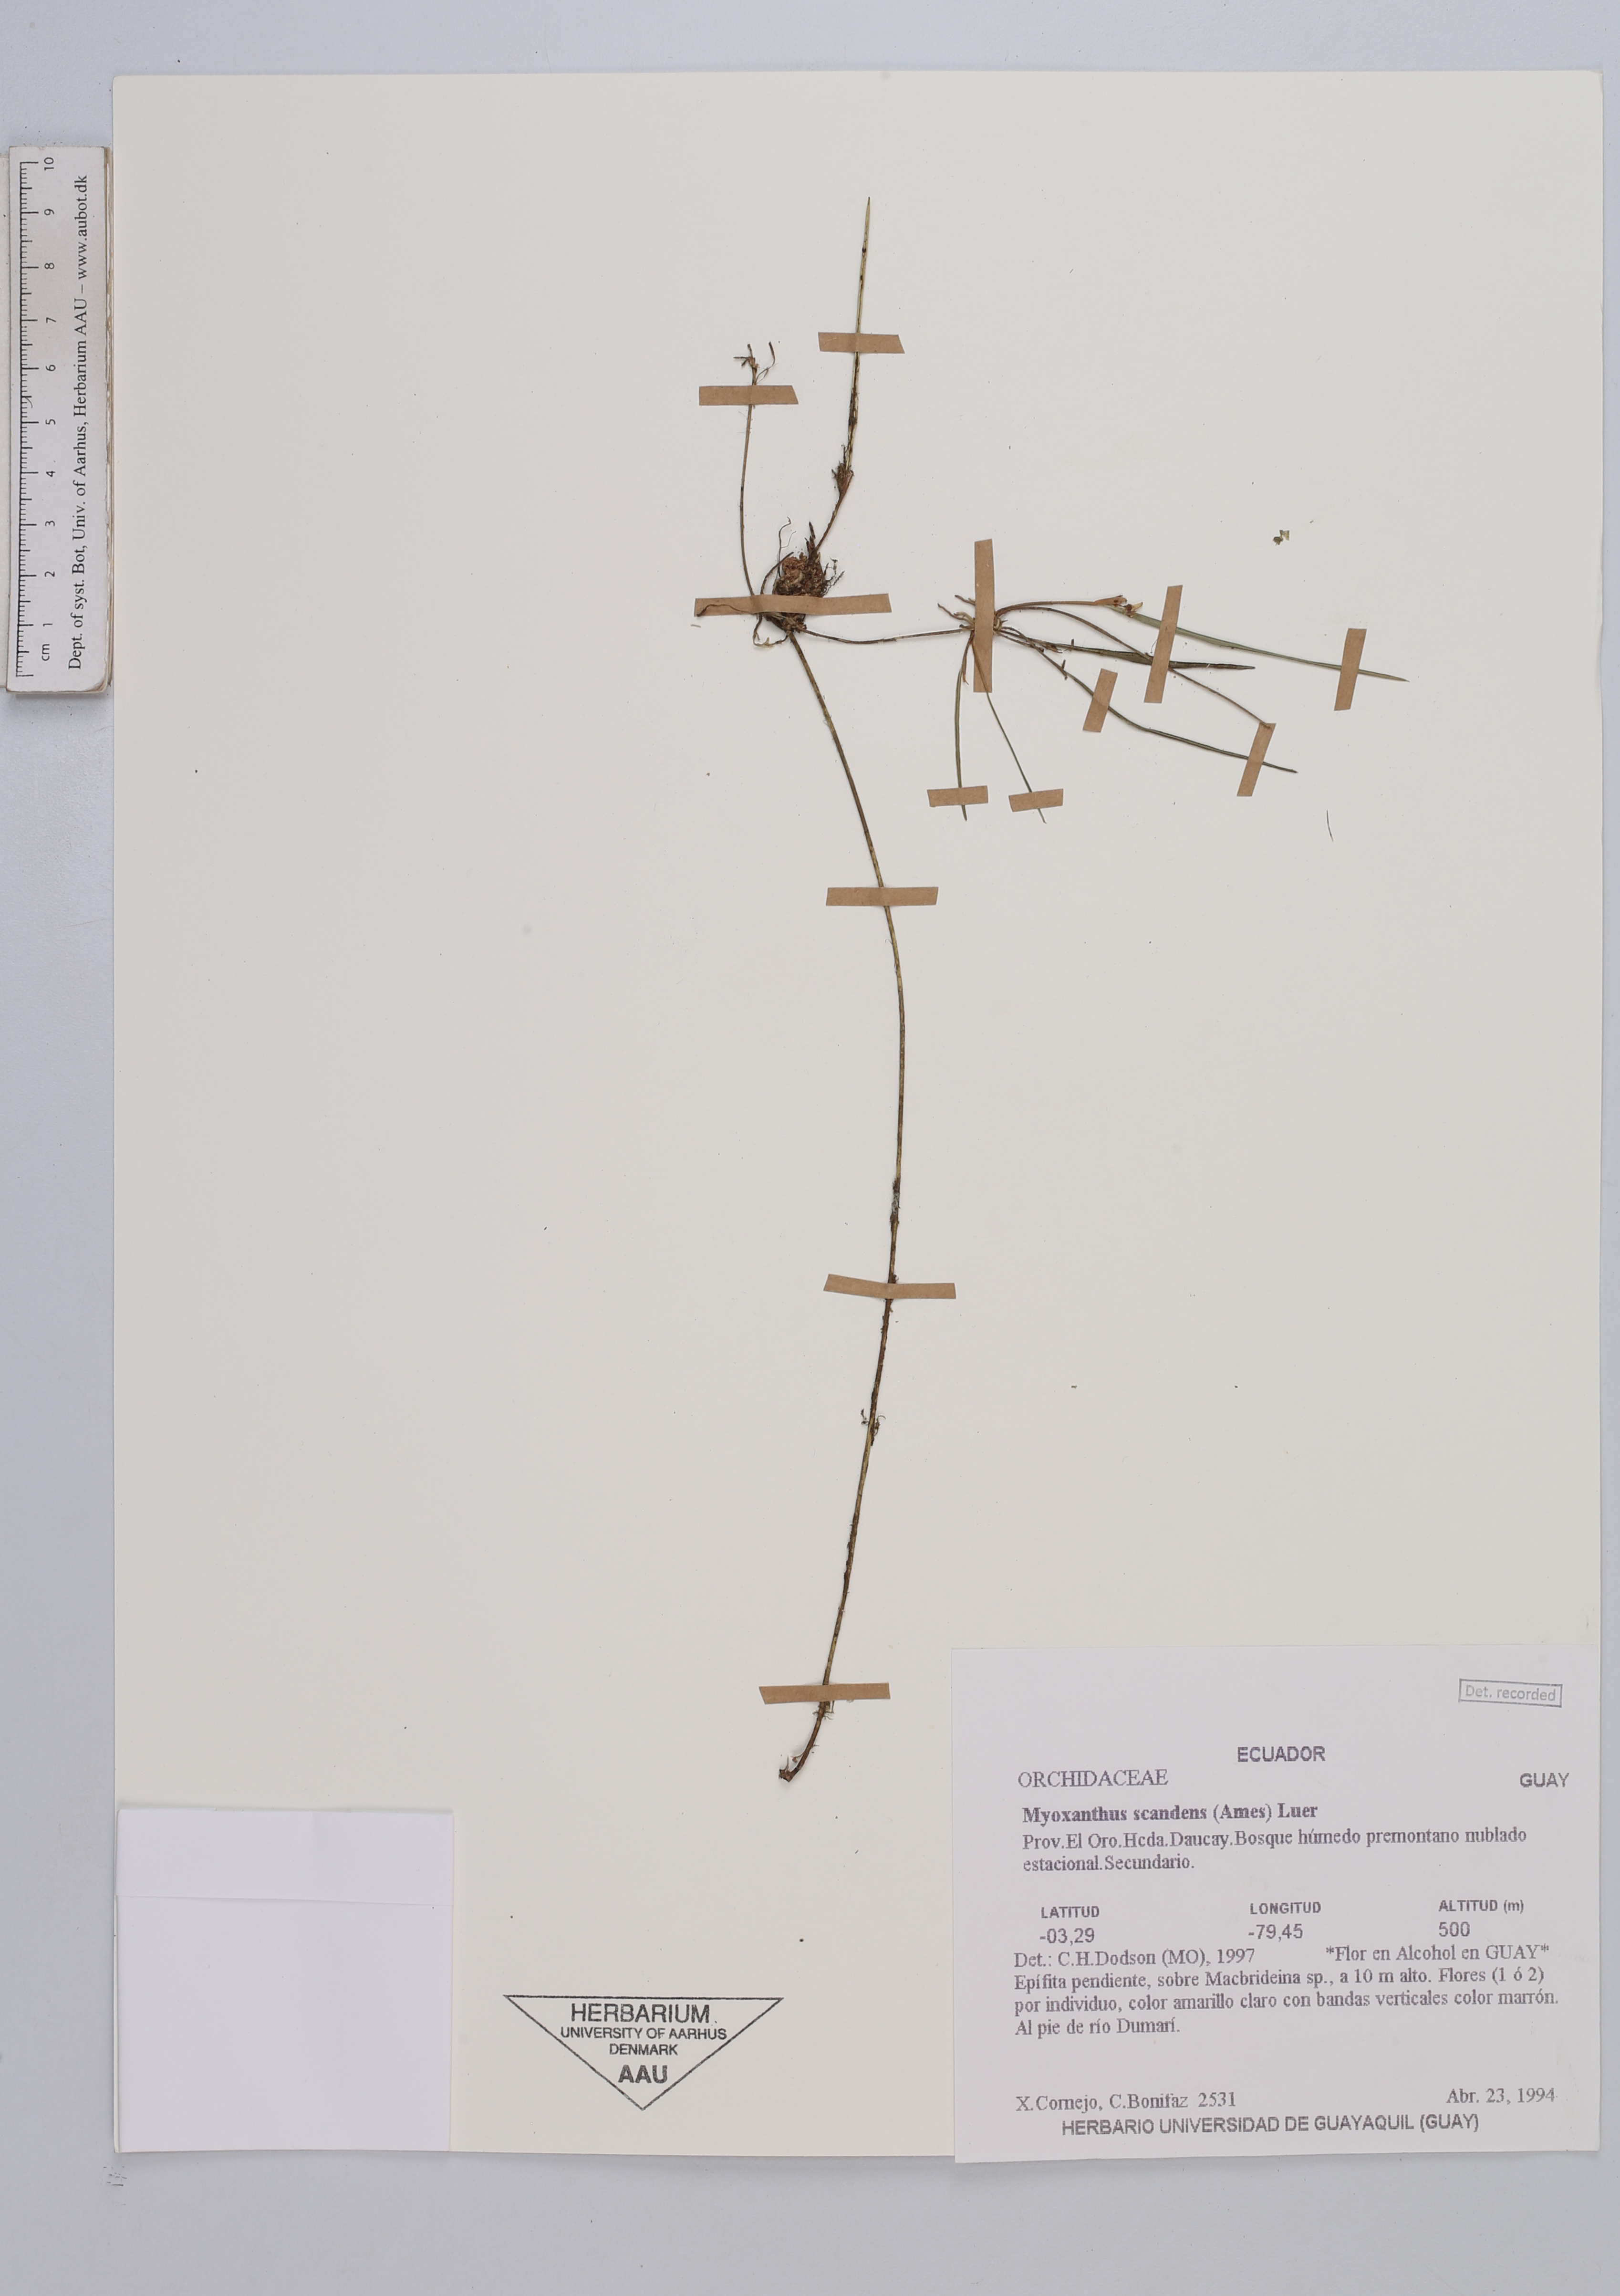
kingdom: Plantae
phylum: Tracheophyta
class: Liliopsida
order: Asparagales
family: Orchidaceae
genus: Myoxanthus
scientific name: Myoxanthus scandens
